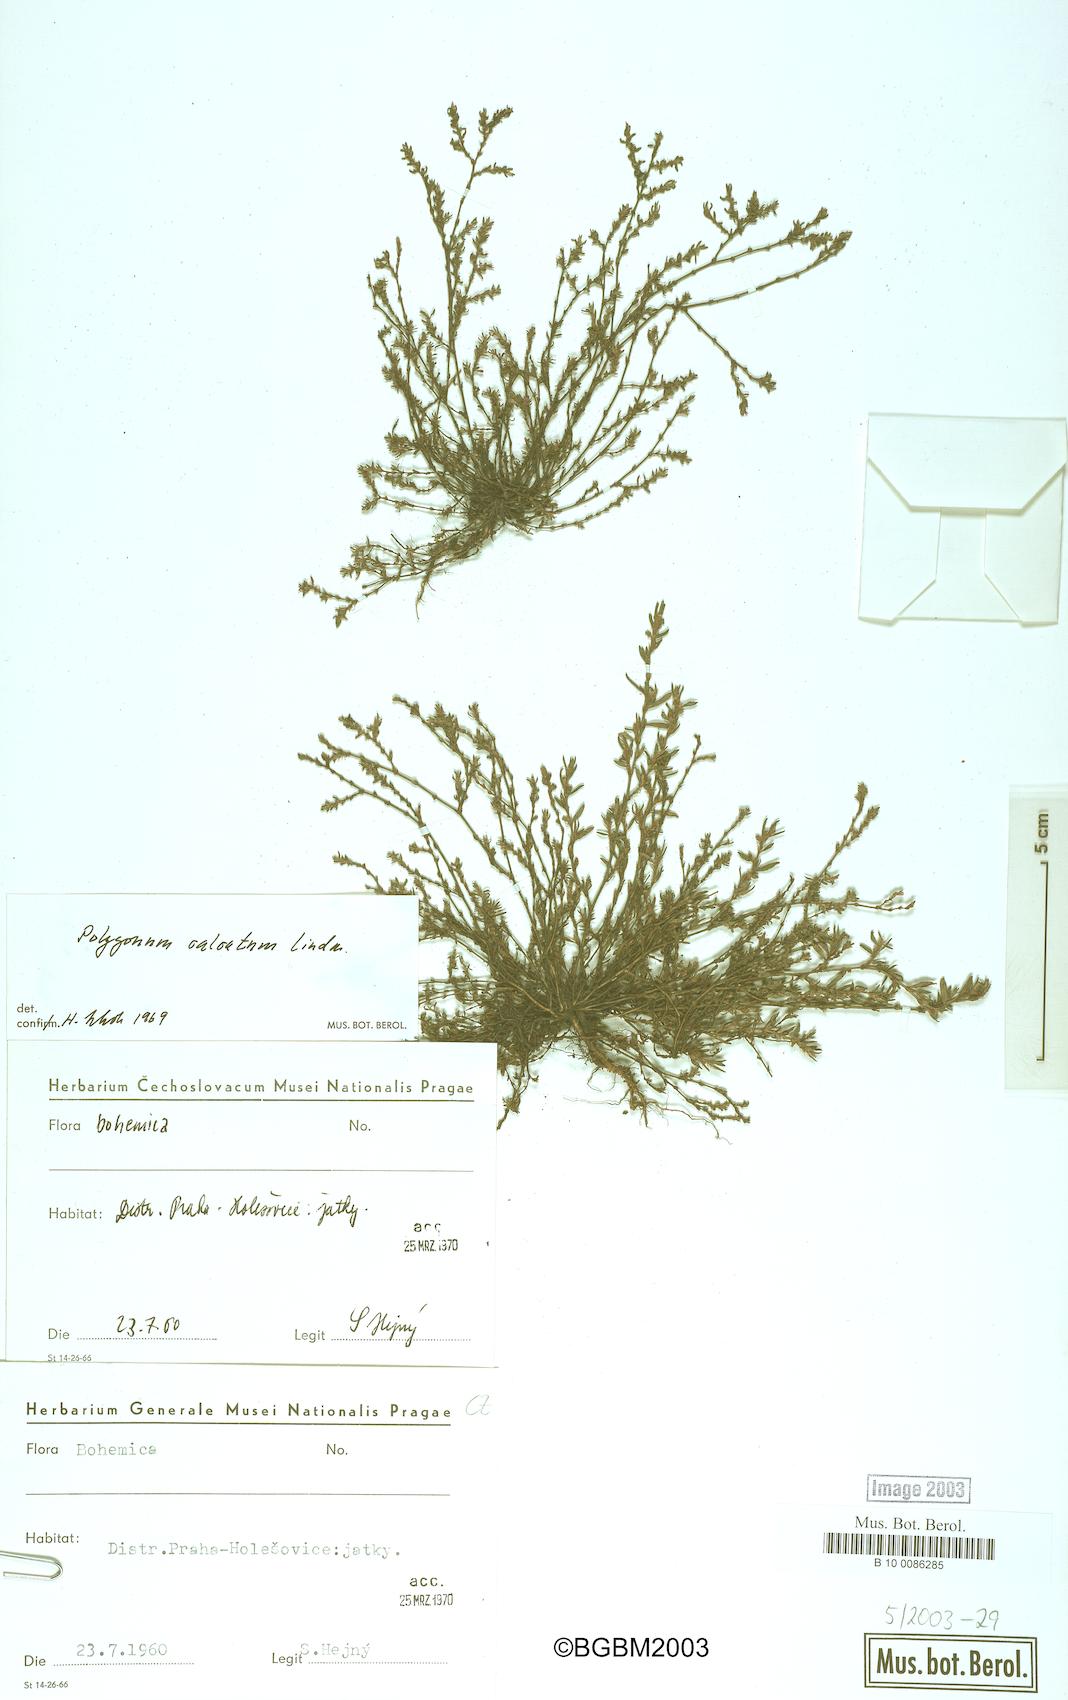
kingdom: Plantae
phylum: Tracheophyta
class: Magnoliopsida
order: Caryophyllales
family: Polygonaceae
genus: Polygonum
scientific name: Polygonum arenastrum
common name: Equal-leaved knotgrass
